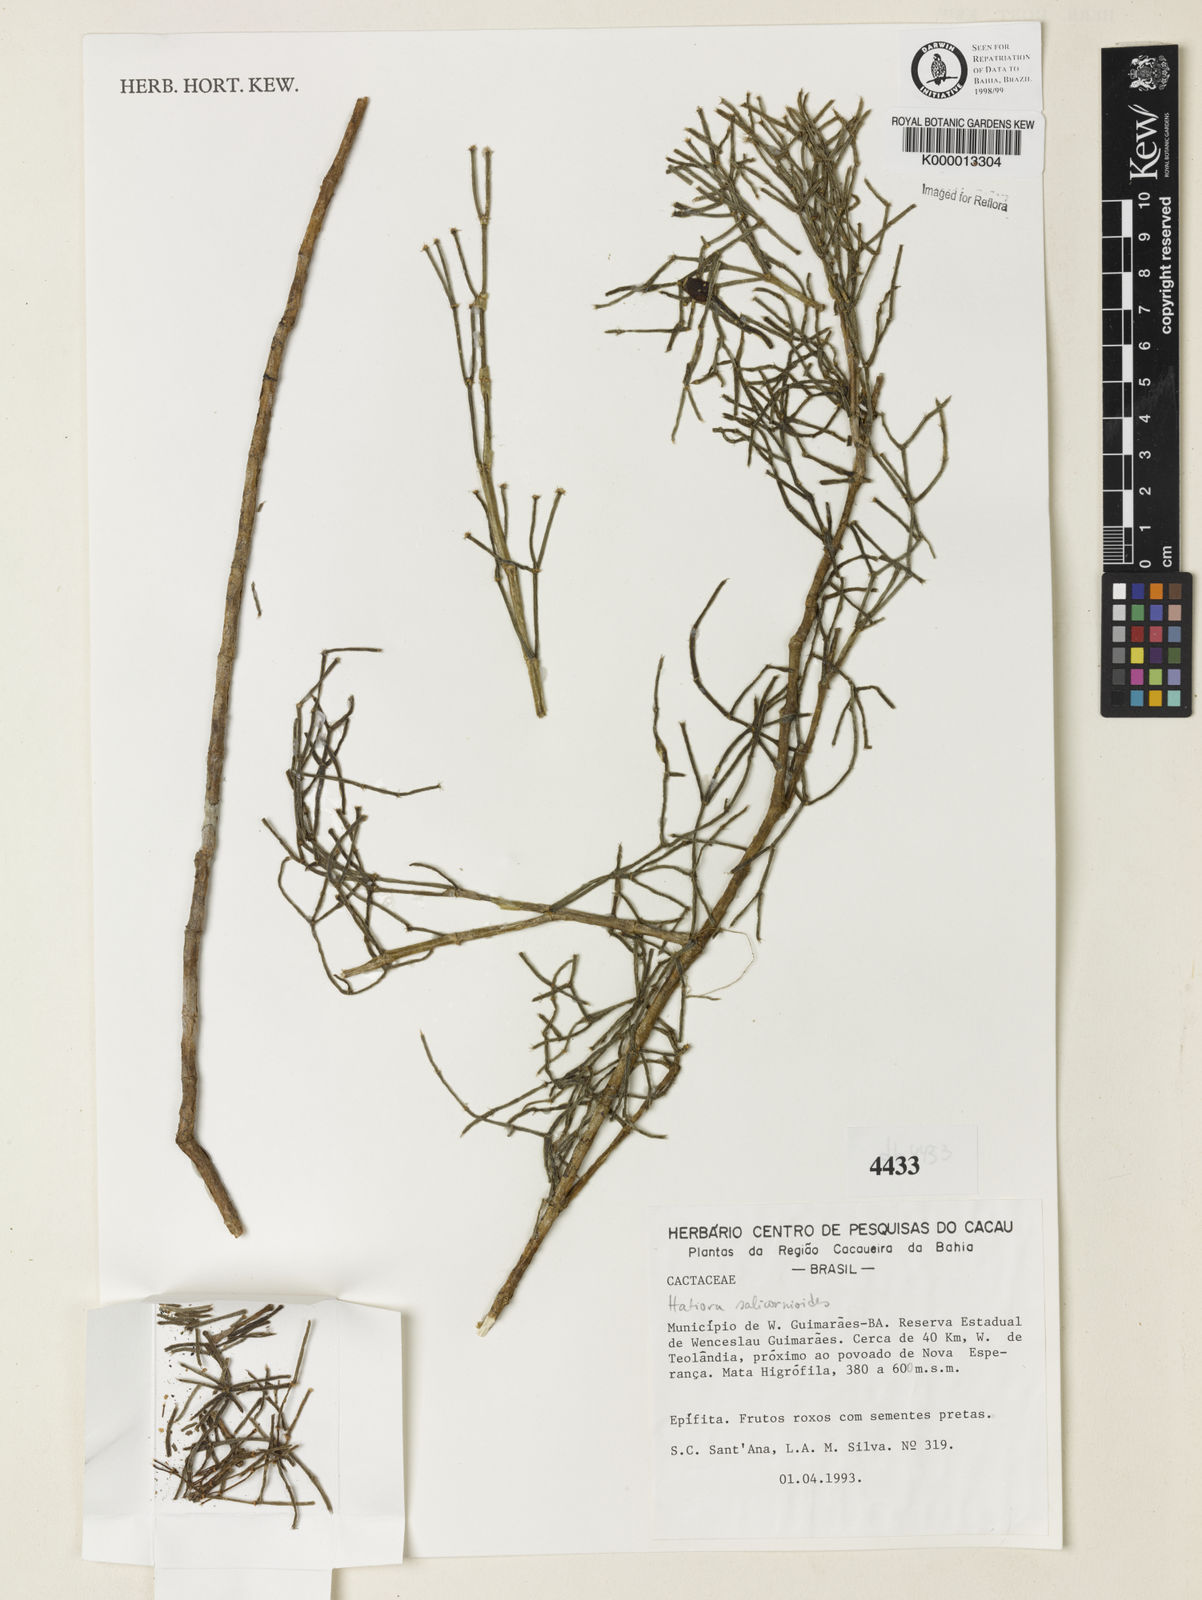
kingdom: Plantae
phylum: Tracheophyta
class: Magnoliopsida
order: Caryophyllales
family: Cactaceae
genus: Hatiora
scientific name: Hatiora salicornioides
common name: Dancing-bones
